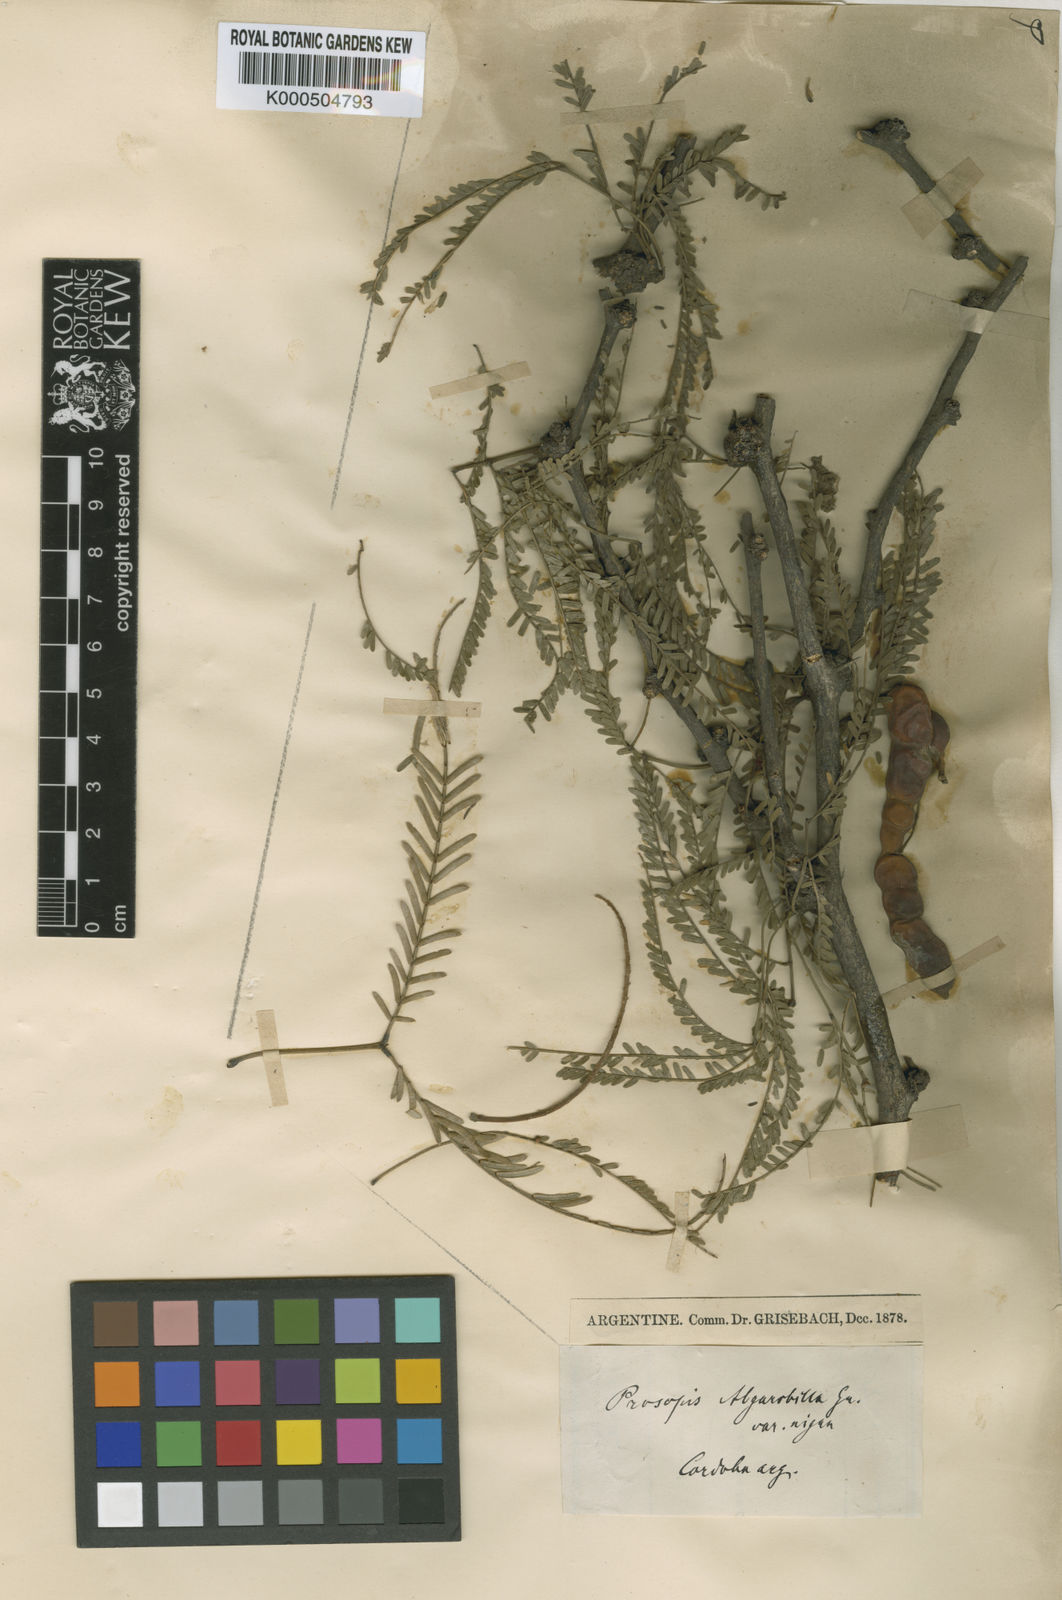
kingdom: Plantae
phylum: Tracheophyta
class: Magnoliopsida
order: Fabales
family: Fabaceae
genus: Prosopis
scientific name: Prosopis affinis
